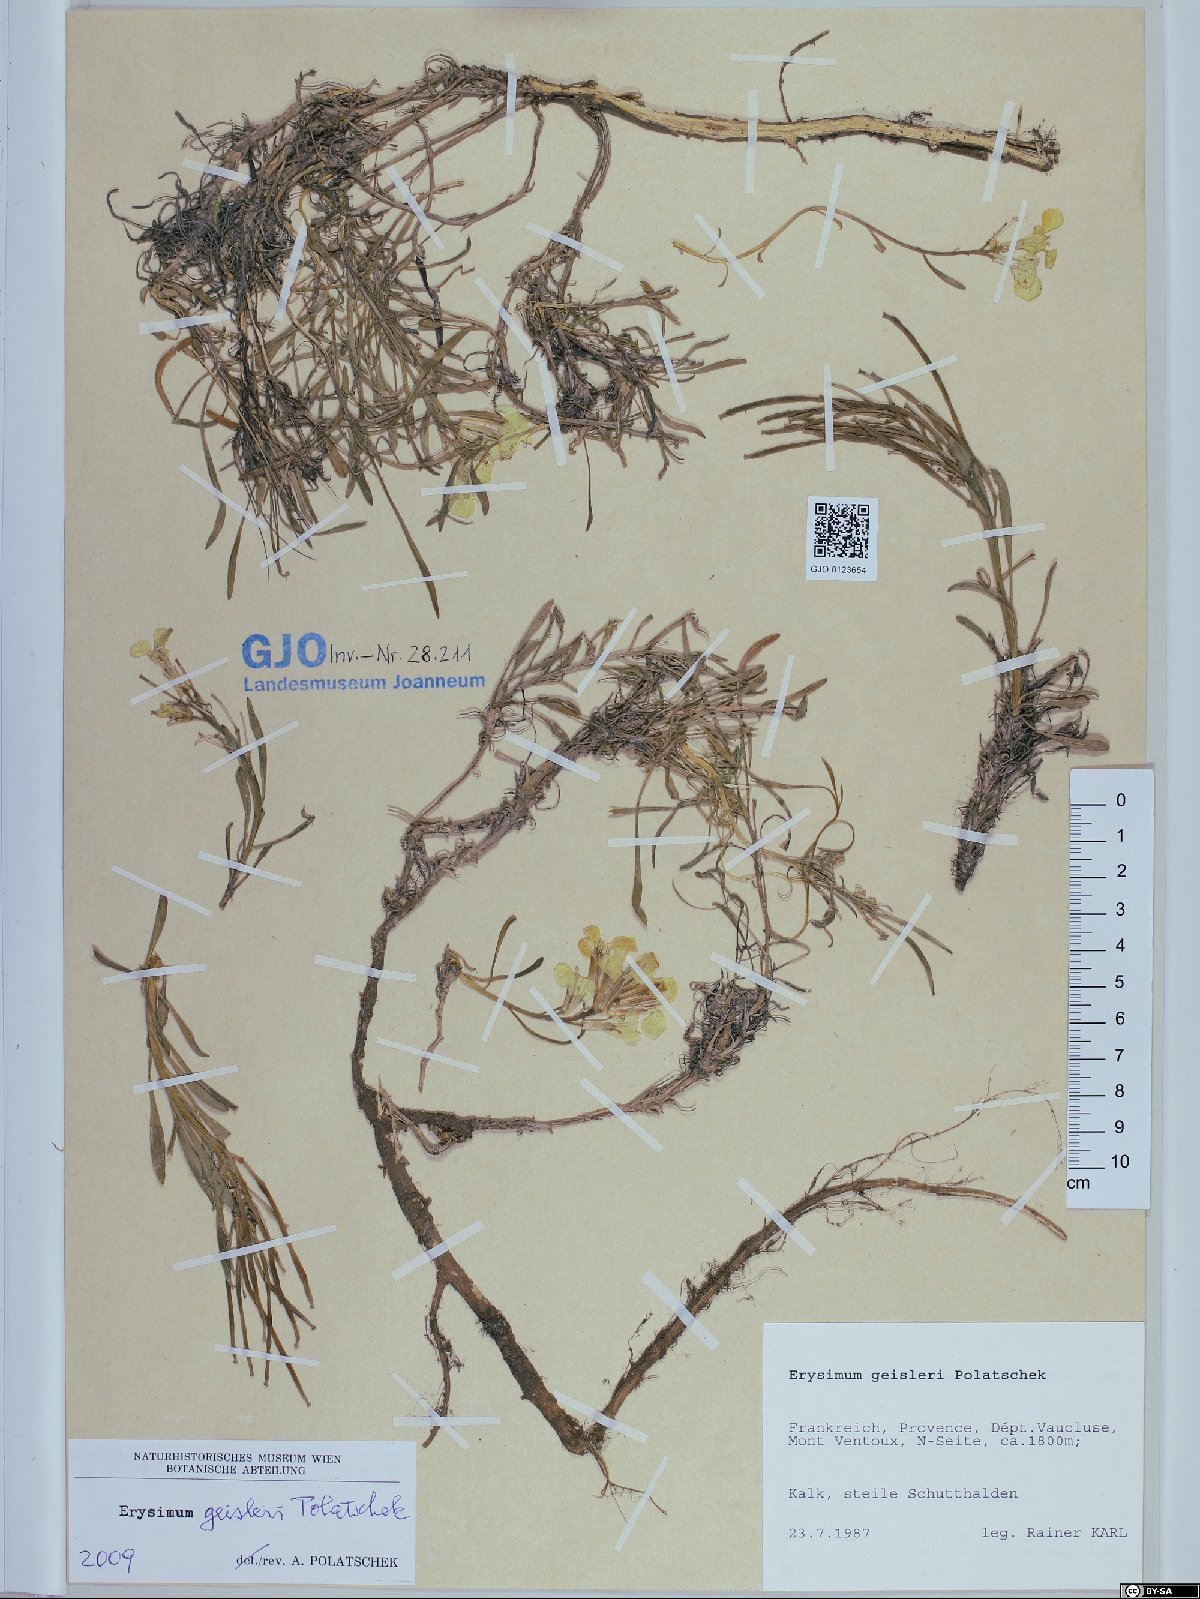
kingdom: Plantae
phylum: Tracheophyta
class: Magnoliopsida
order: Brassicales
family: Brassicaceae
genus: Erysimum
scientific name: Erysimum geisleri
